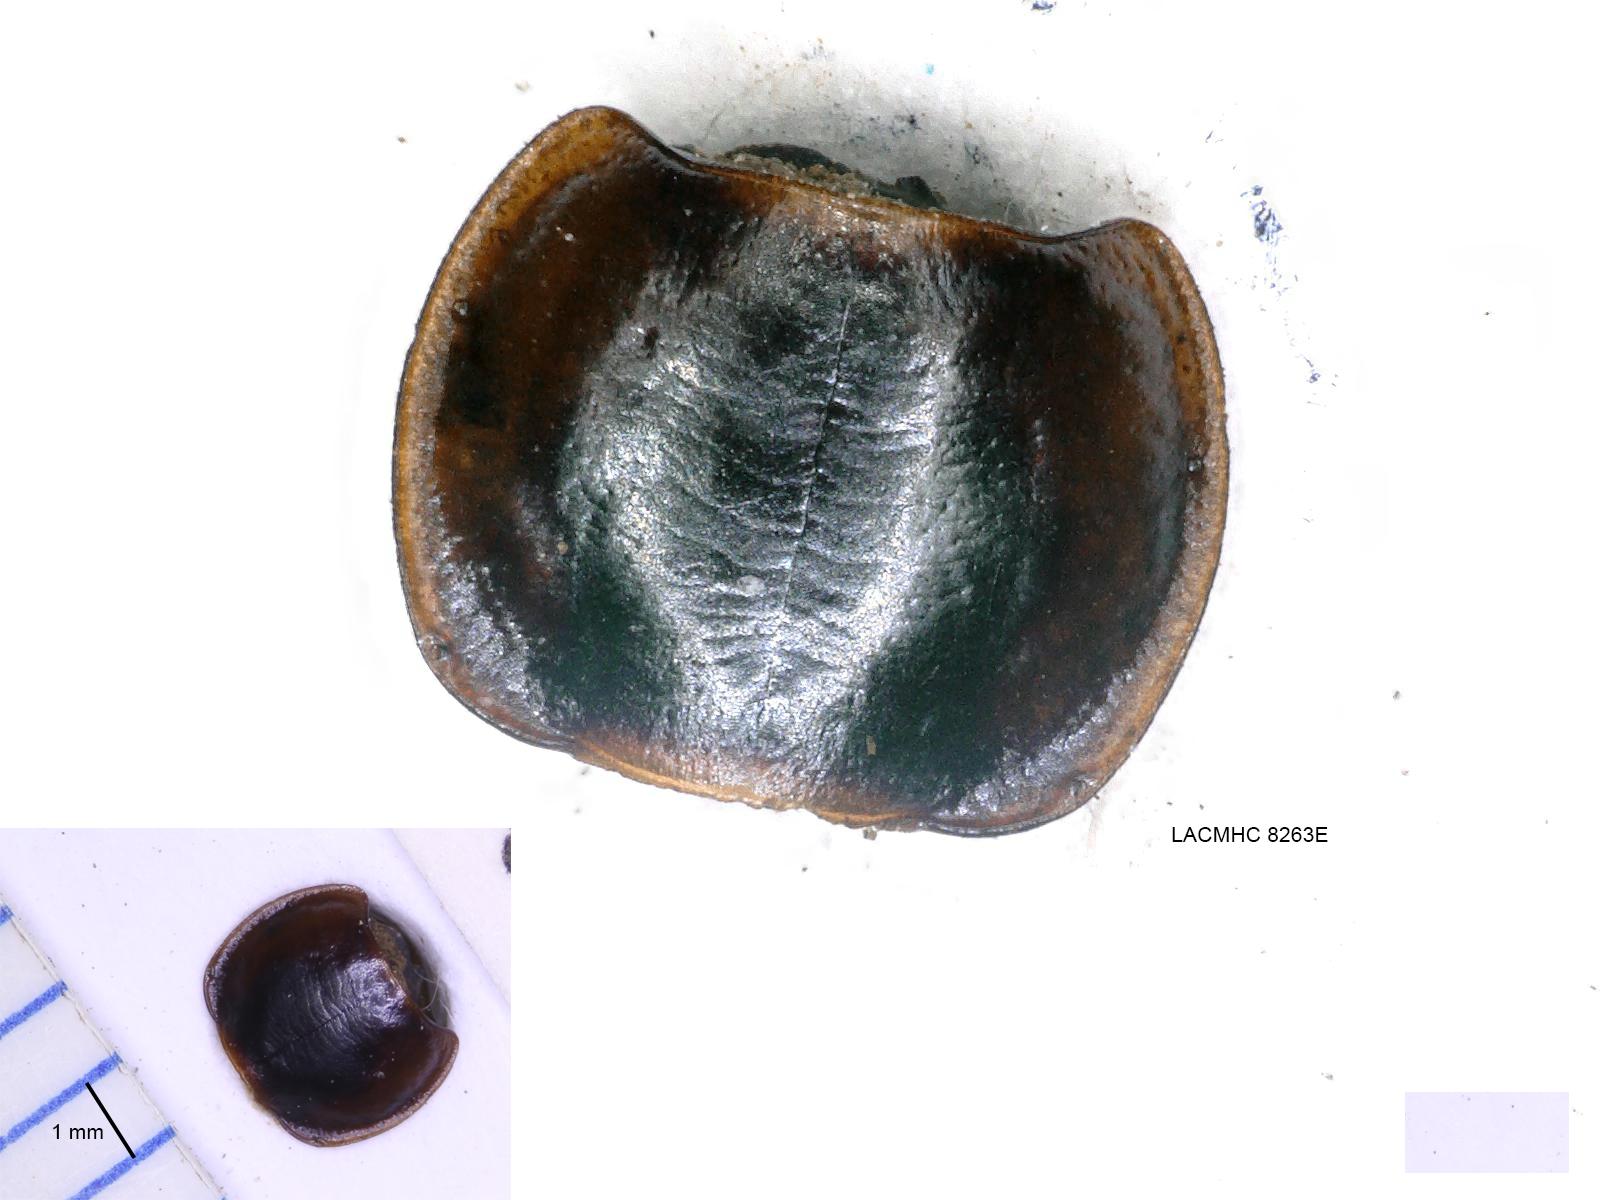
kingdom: Animalia
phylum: Arthropoda
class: Insecta
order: Coleoptera
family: Carabidae
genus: Tanystoma
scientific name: Tanystoma maculicolle
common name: Tule beetle
